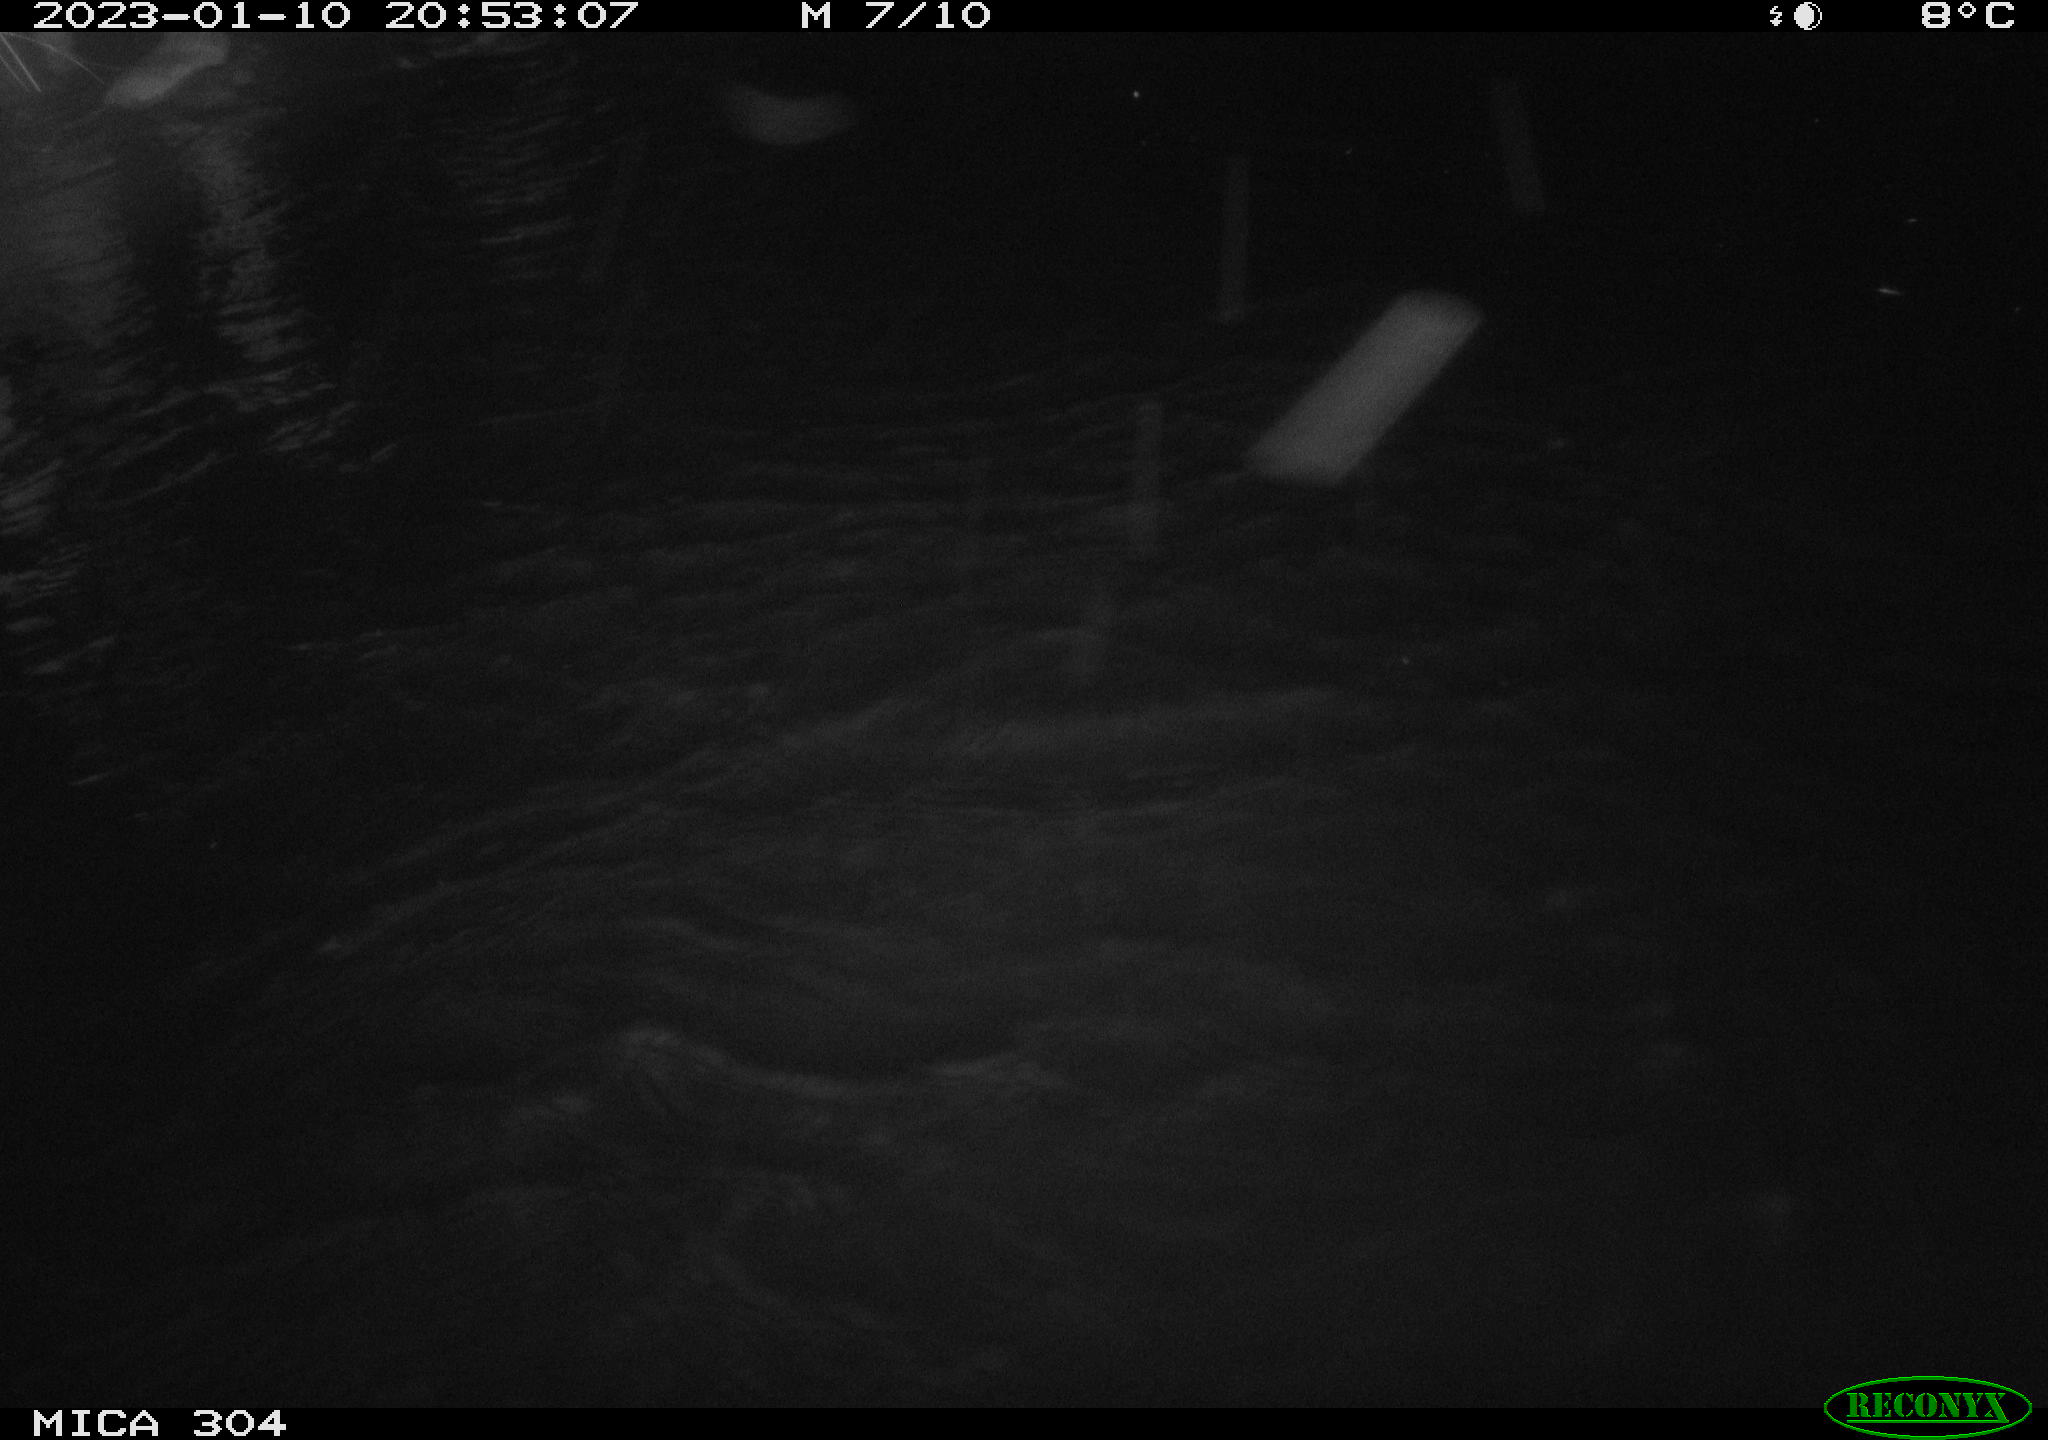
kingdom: Animalia
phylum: Chordata
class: Mammalia
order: Rodentia
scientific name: Rodentia
